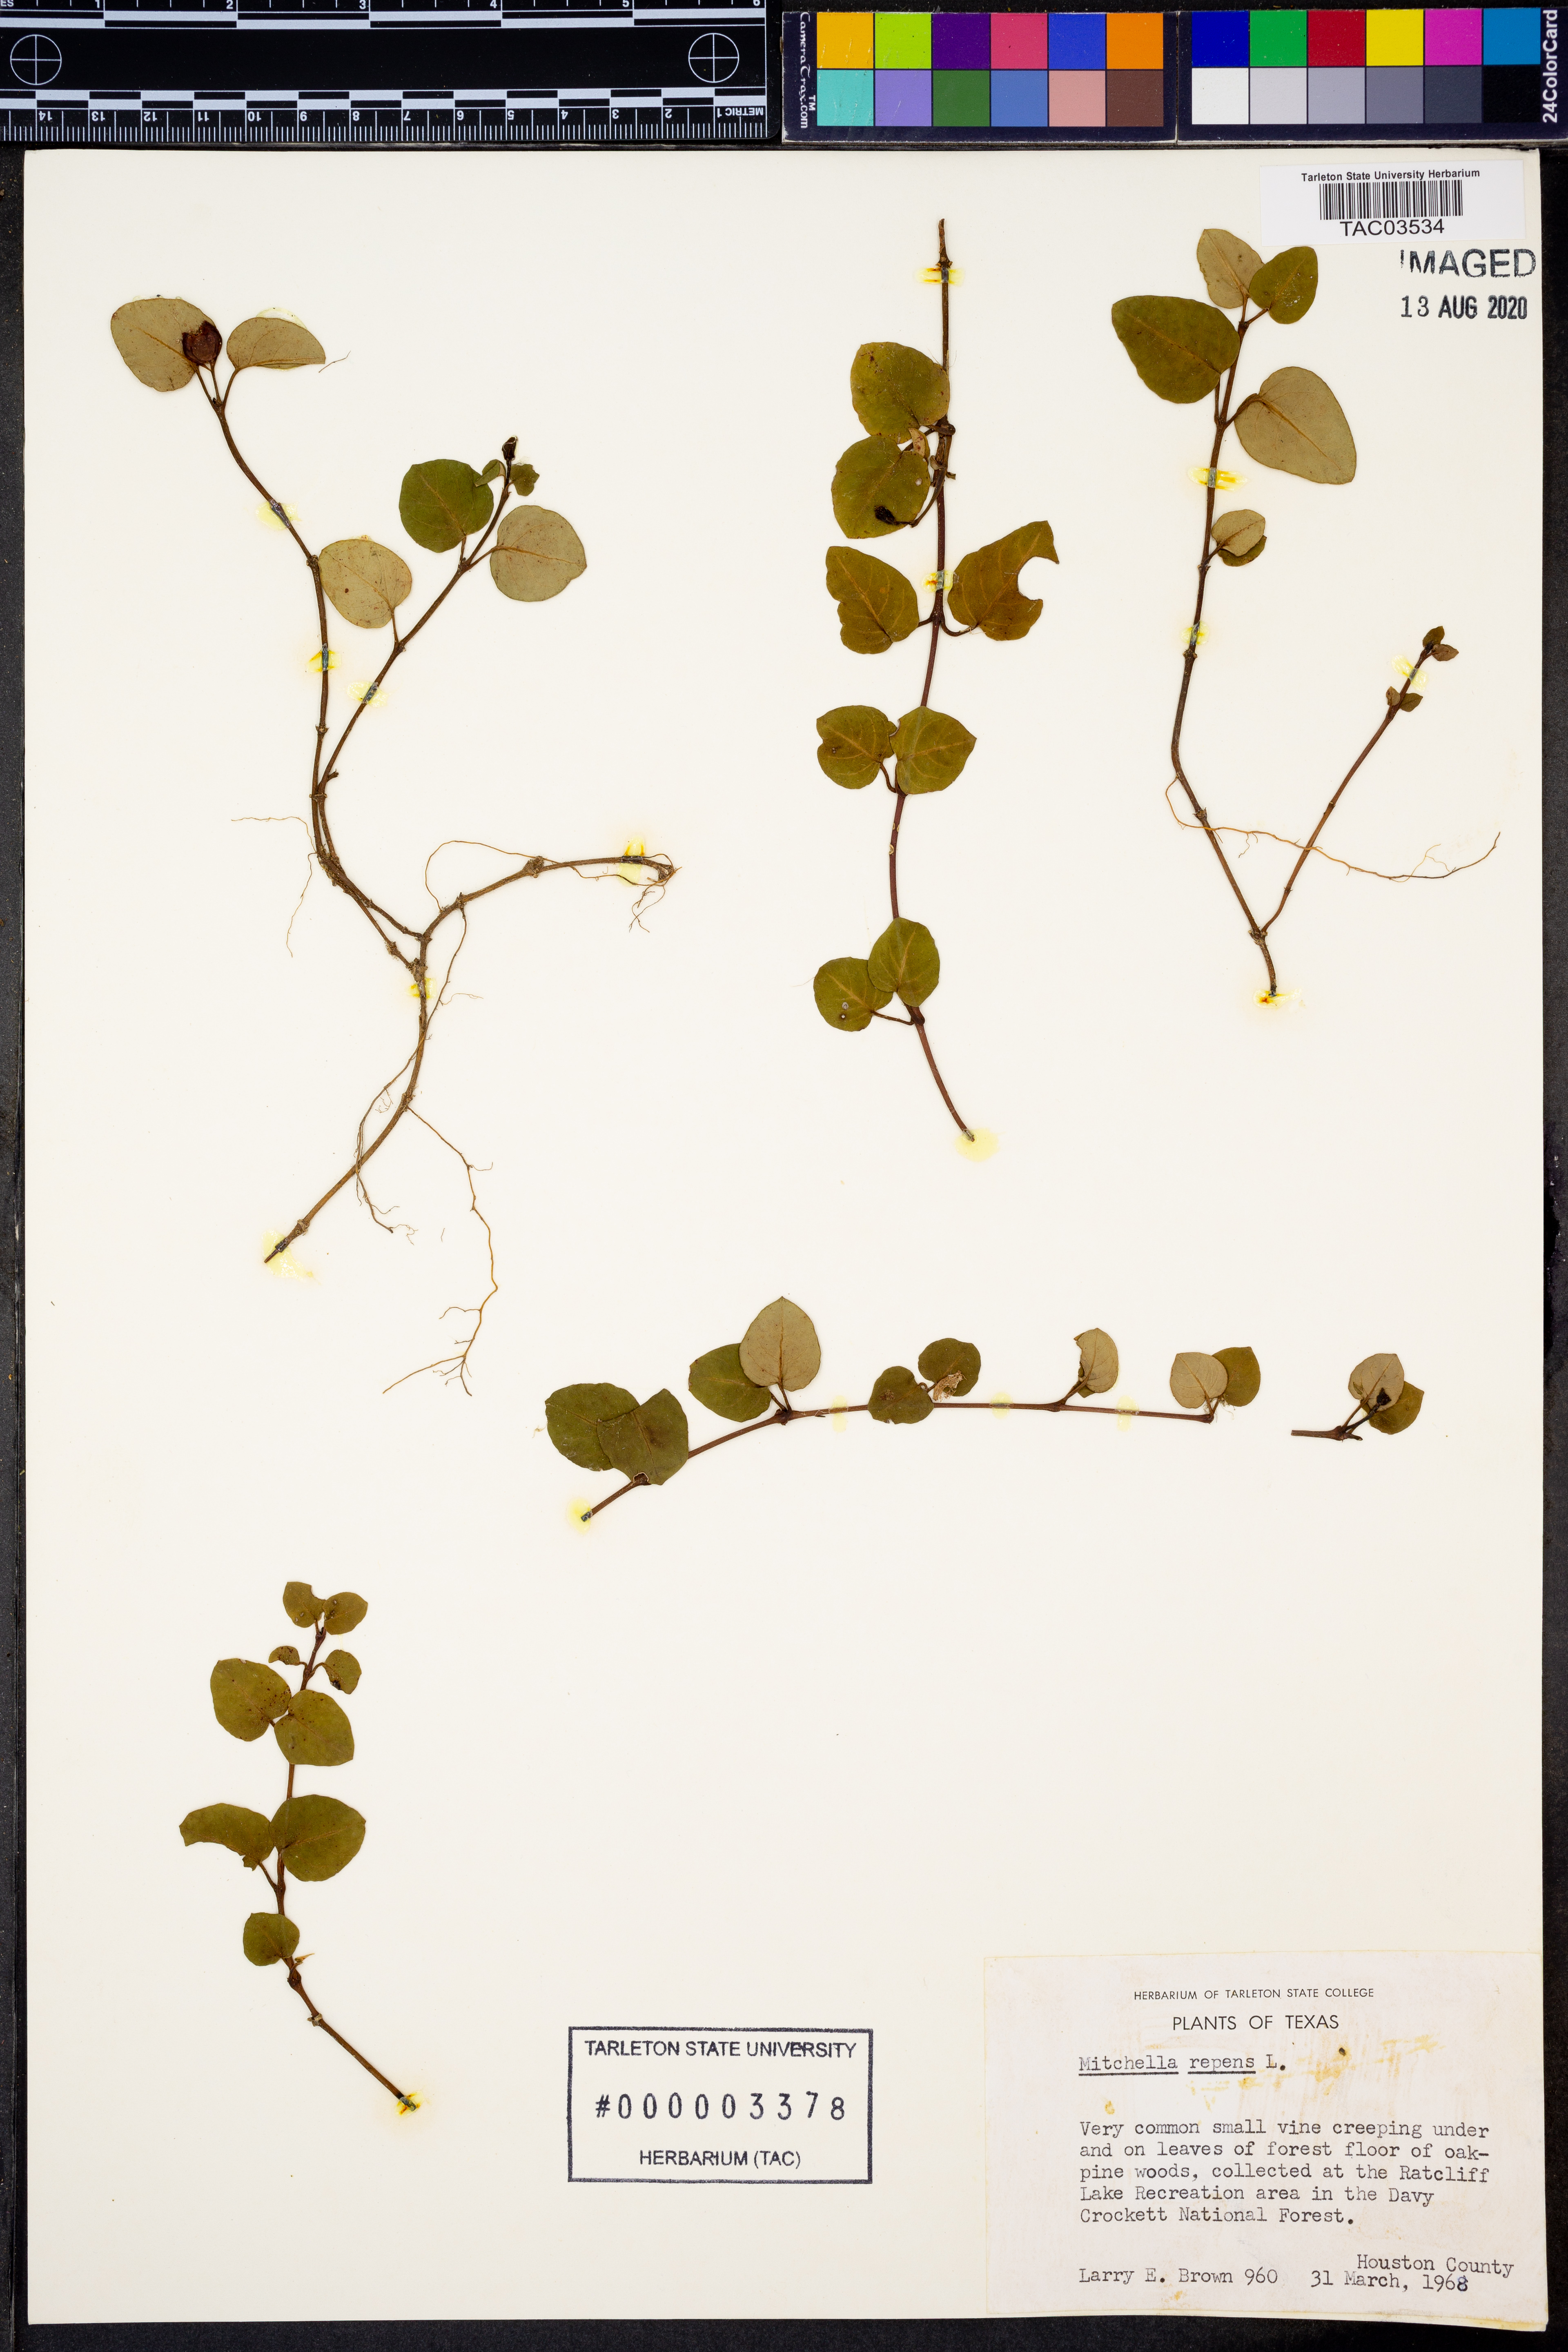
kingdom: Plantae
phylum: Tracheophyta
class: Magnoliopsida
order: Gentianales
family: Rubiaceae
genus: Mitchella
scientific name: Mitchella repens
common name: Partridge-berry
